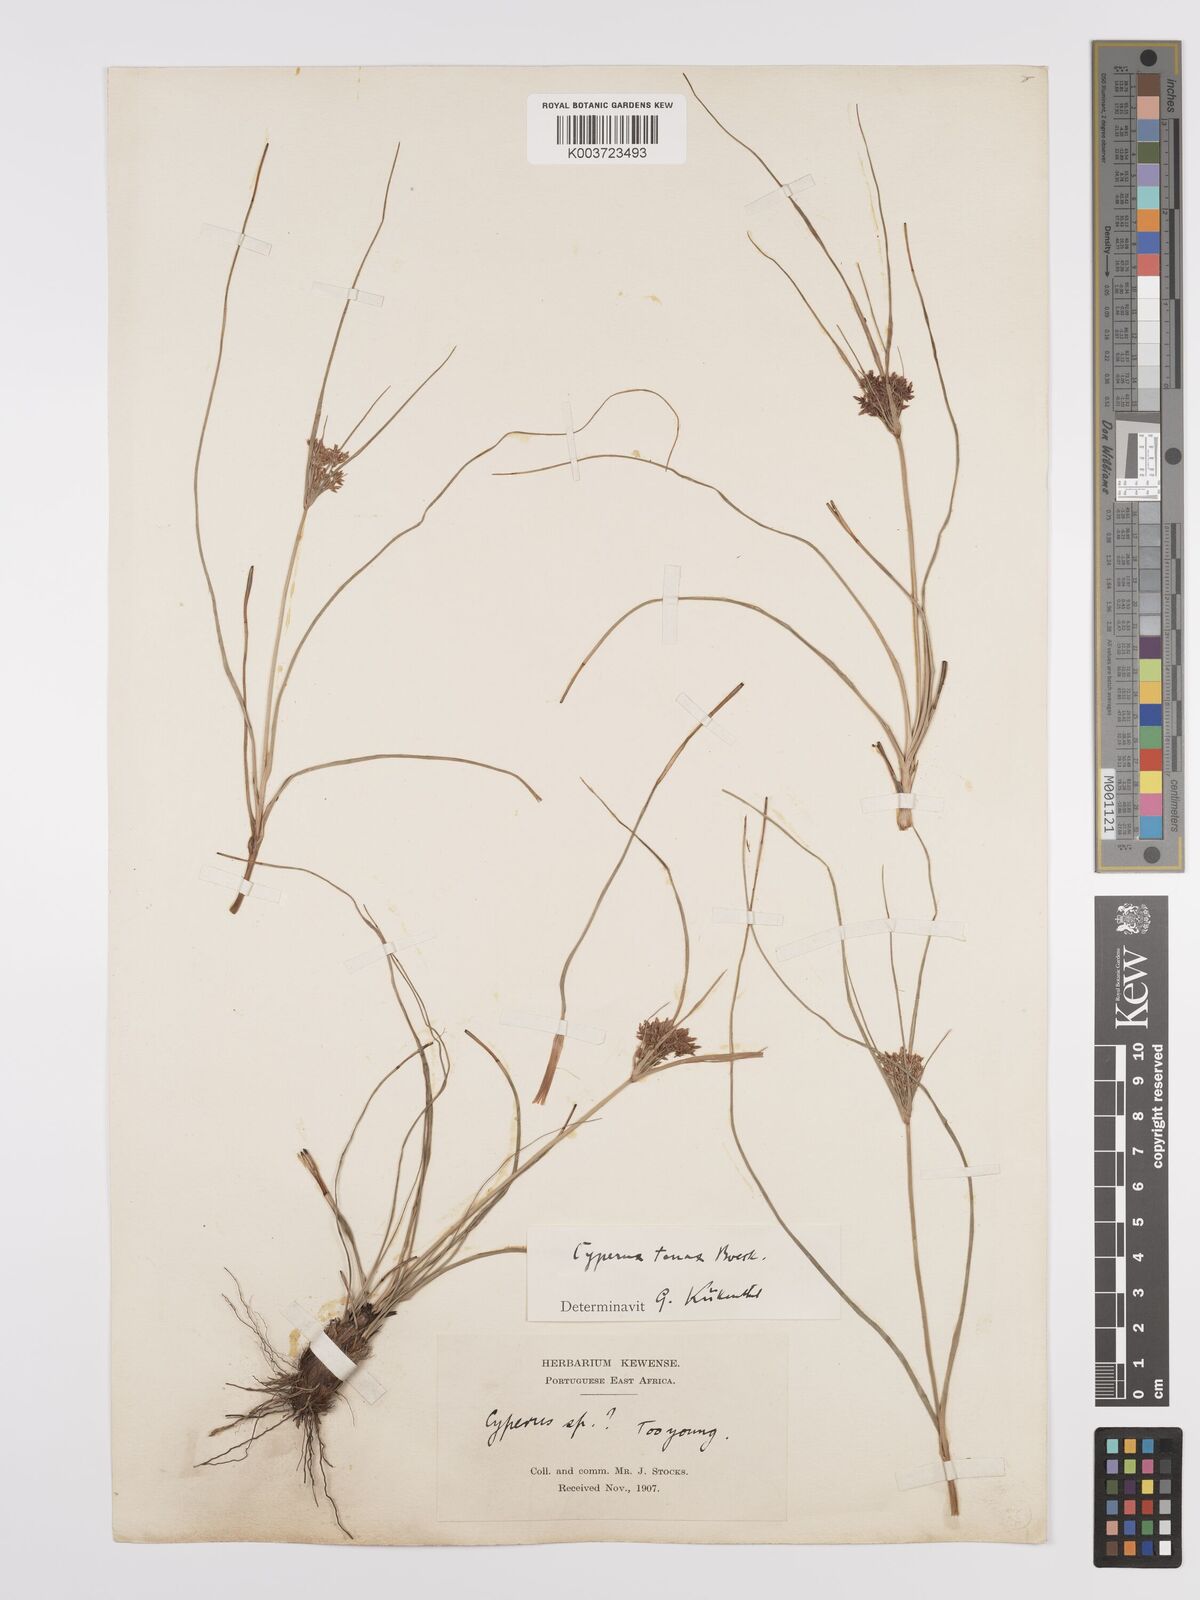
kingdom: Plantae
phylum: Tracheophyta
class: Liliopsida
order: Poales
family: Cyperaceae
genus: Cyperus
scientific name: Cyperus tenax
